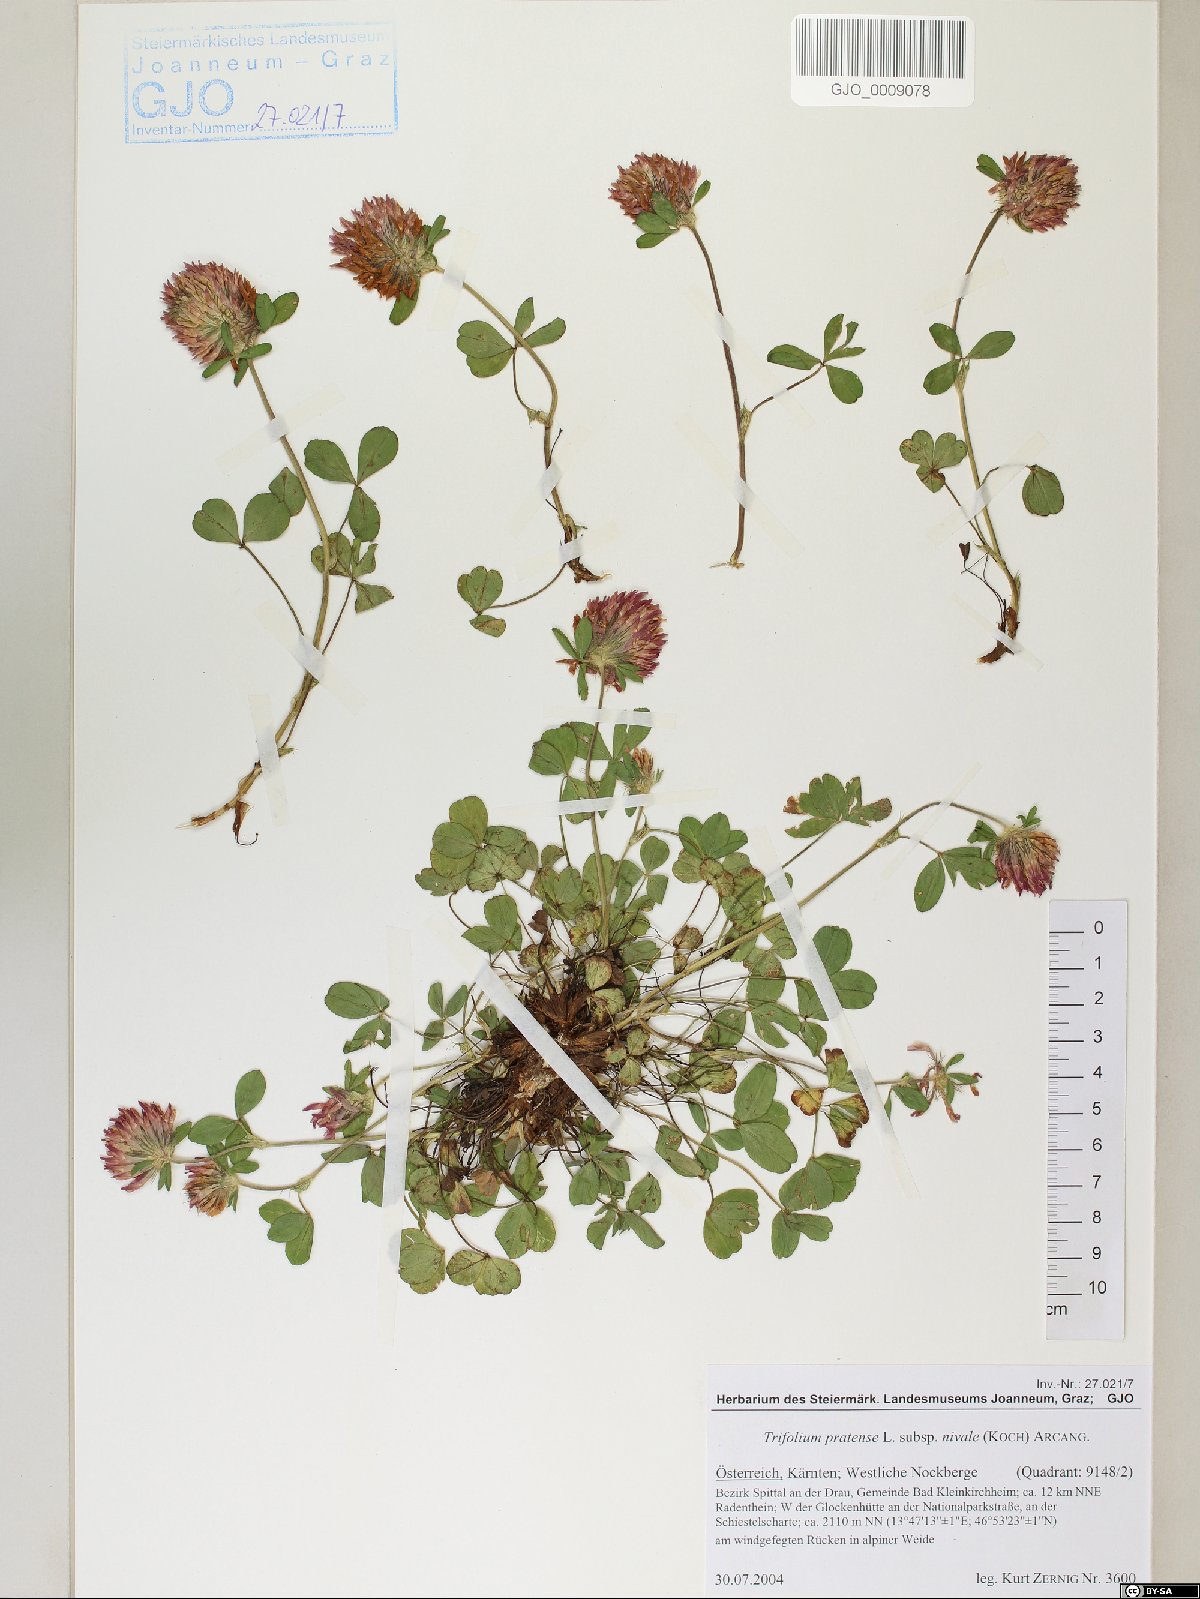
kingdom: Plantae
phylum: Tracheophyta
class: Magnoliopsida
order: Fabales
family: Fabaceae
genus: Trifolium
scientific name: Trifolium pratense
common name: Red clover
